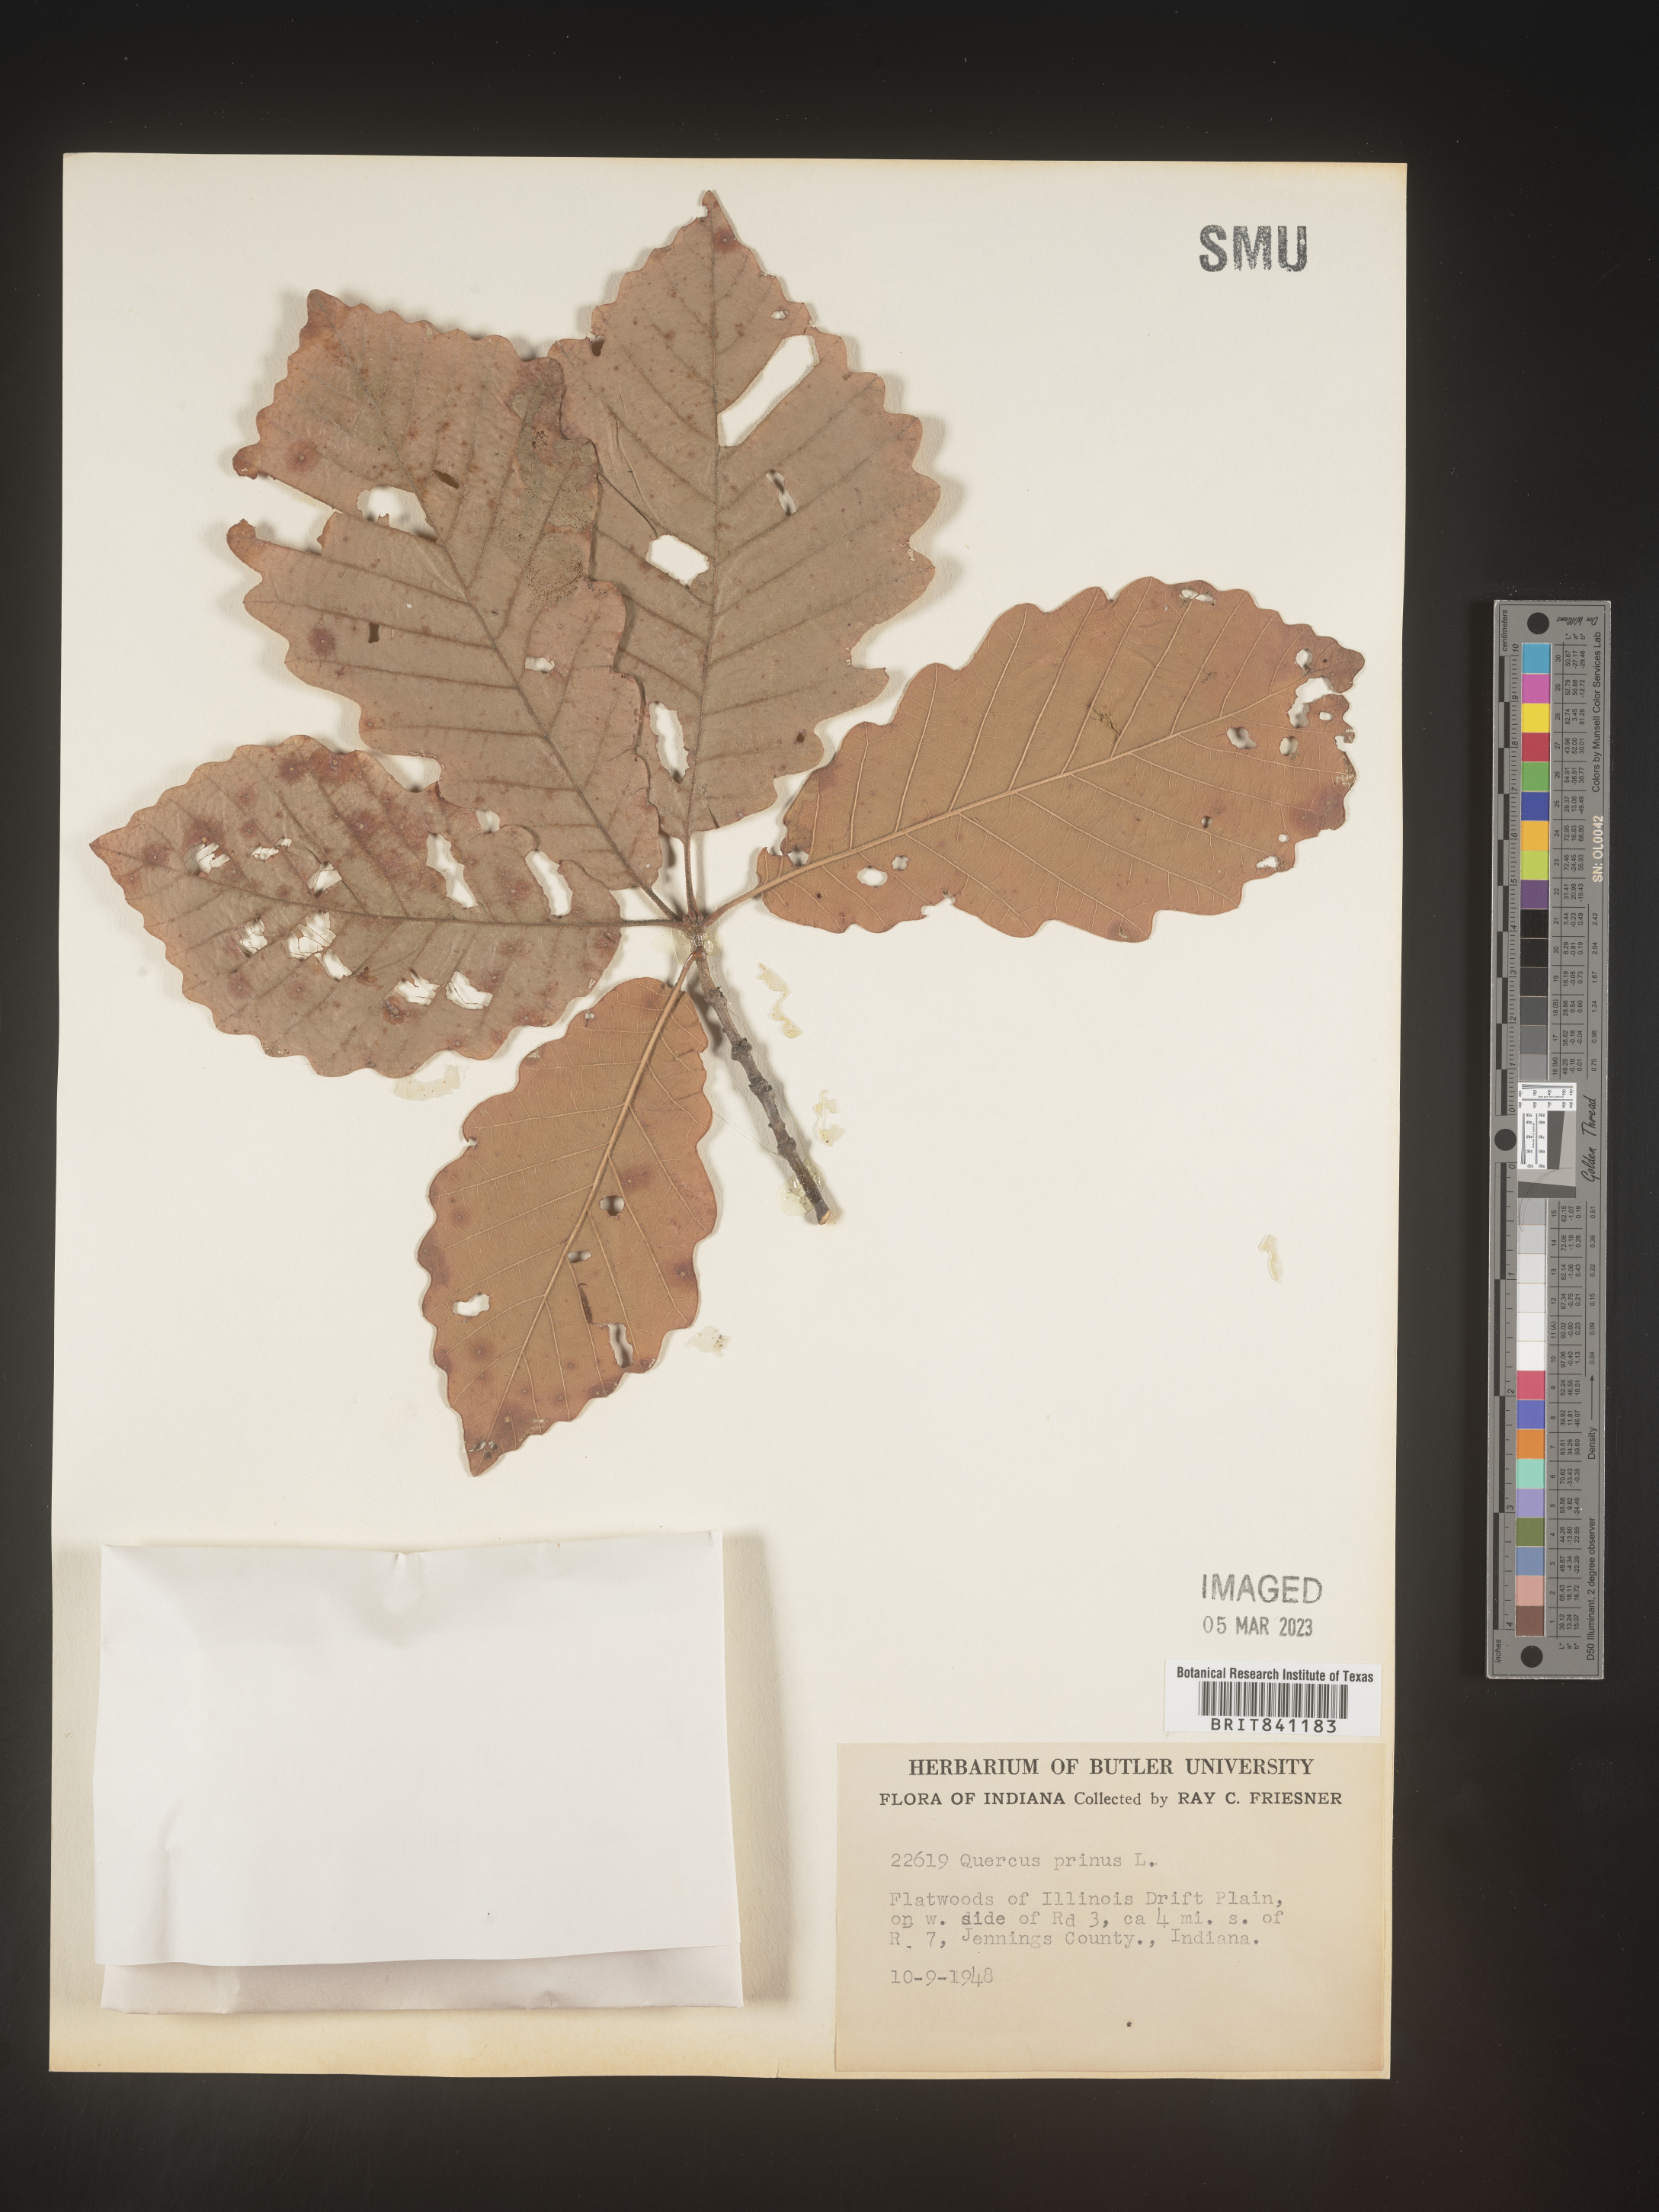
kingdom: Plantae
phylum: Tracheophyta
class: Magnoliopsida
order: Fagales
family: Fagaceae
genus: Quercus
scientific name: Quercus michauxii
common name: Swamp chestnut oak
